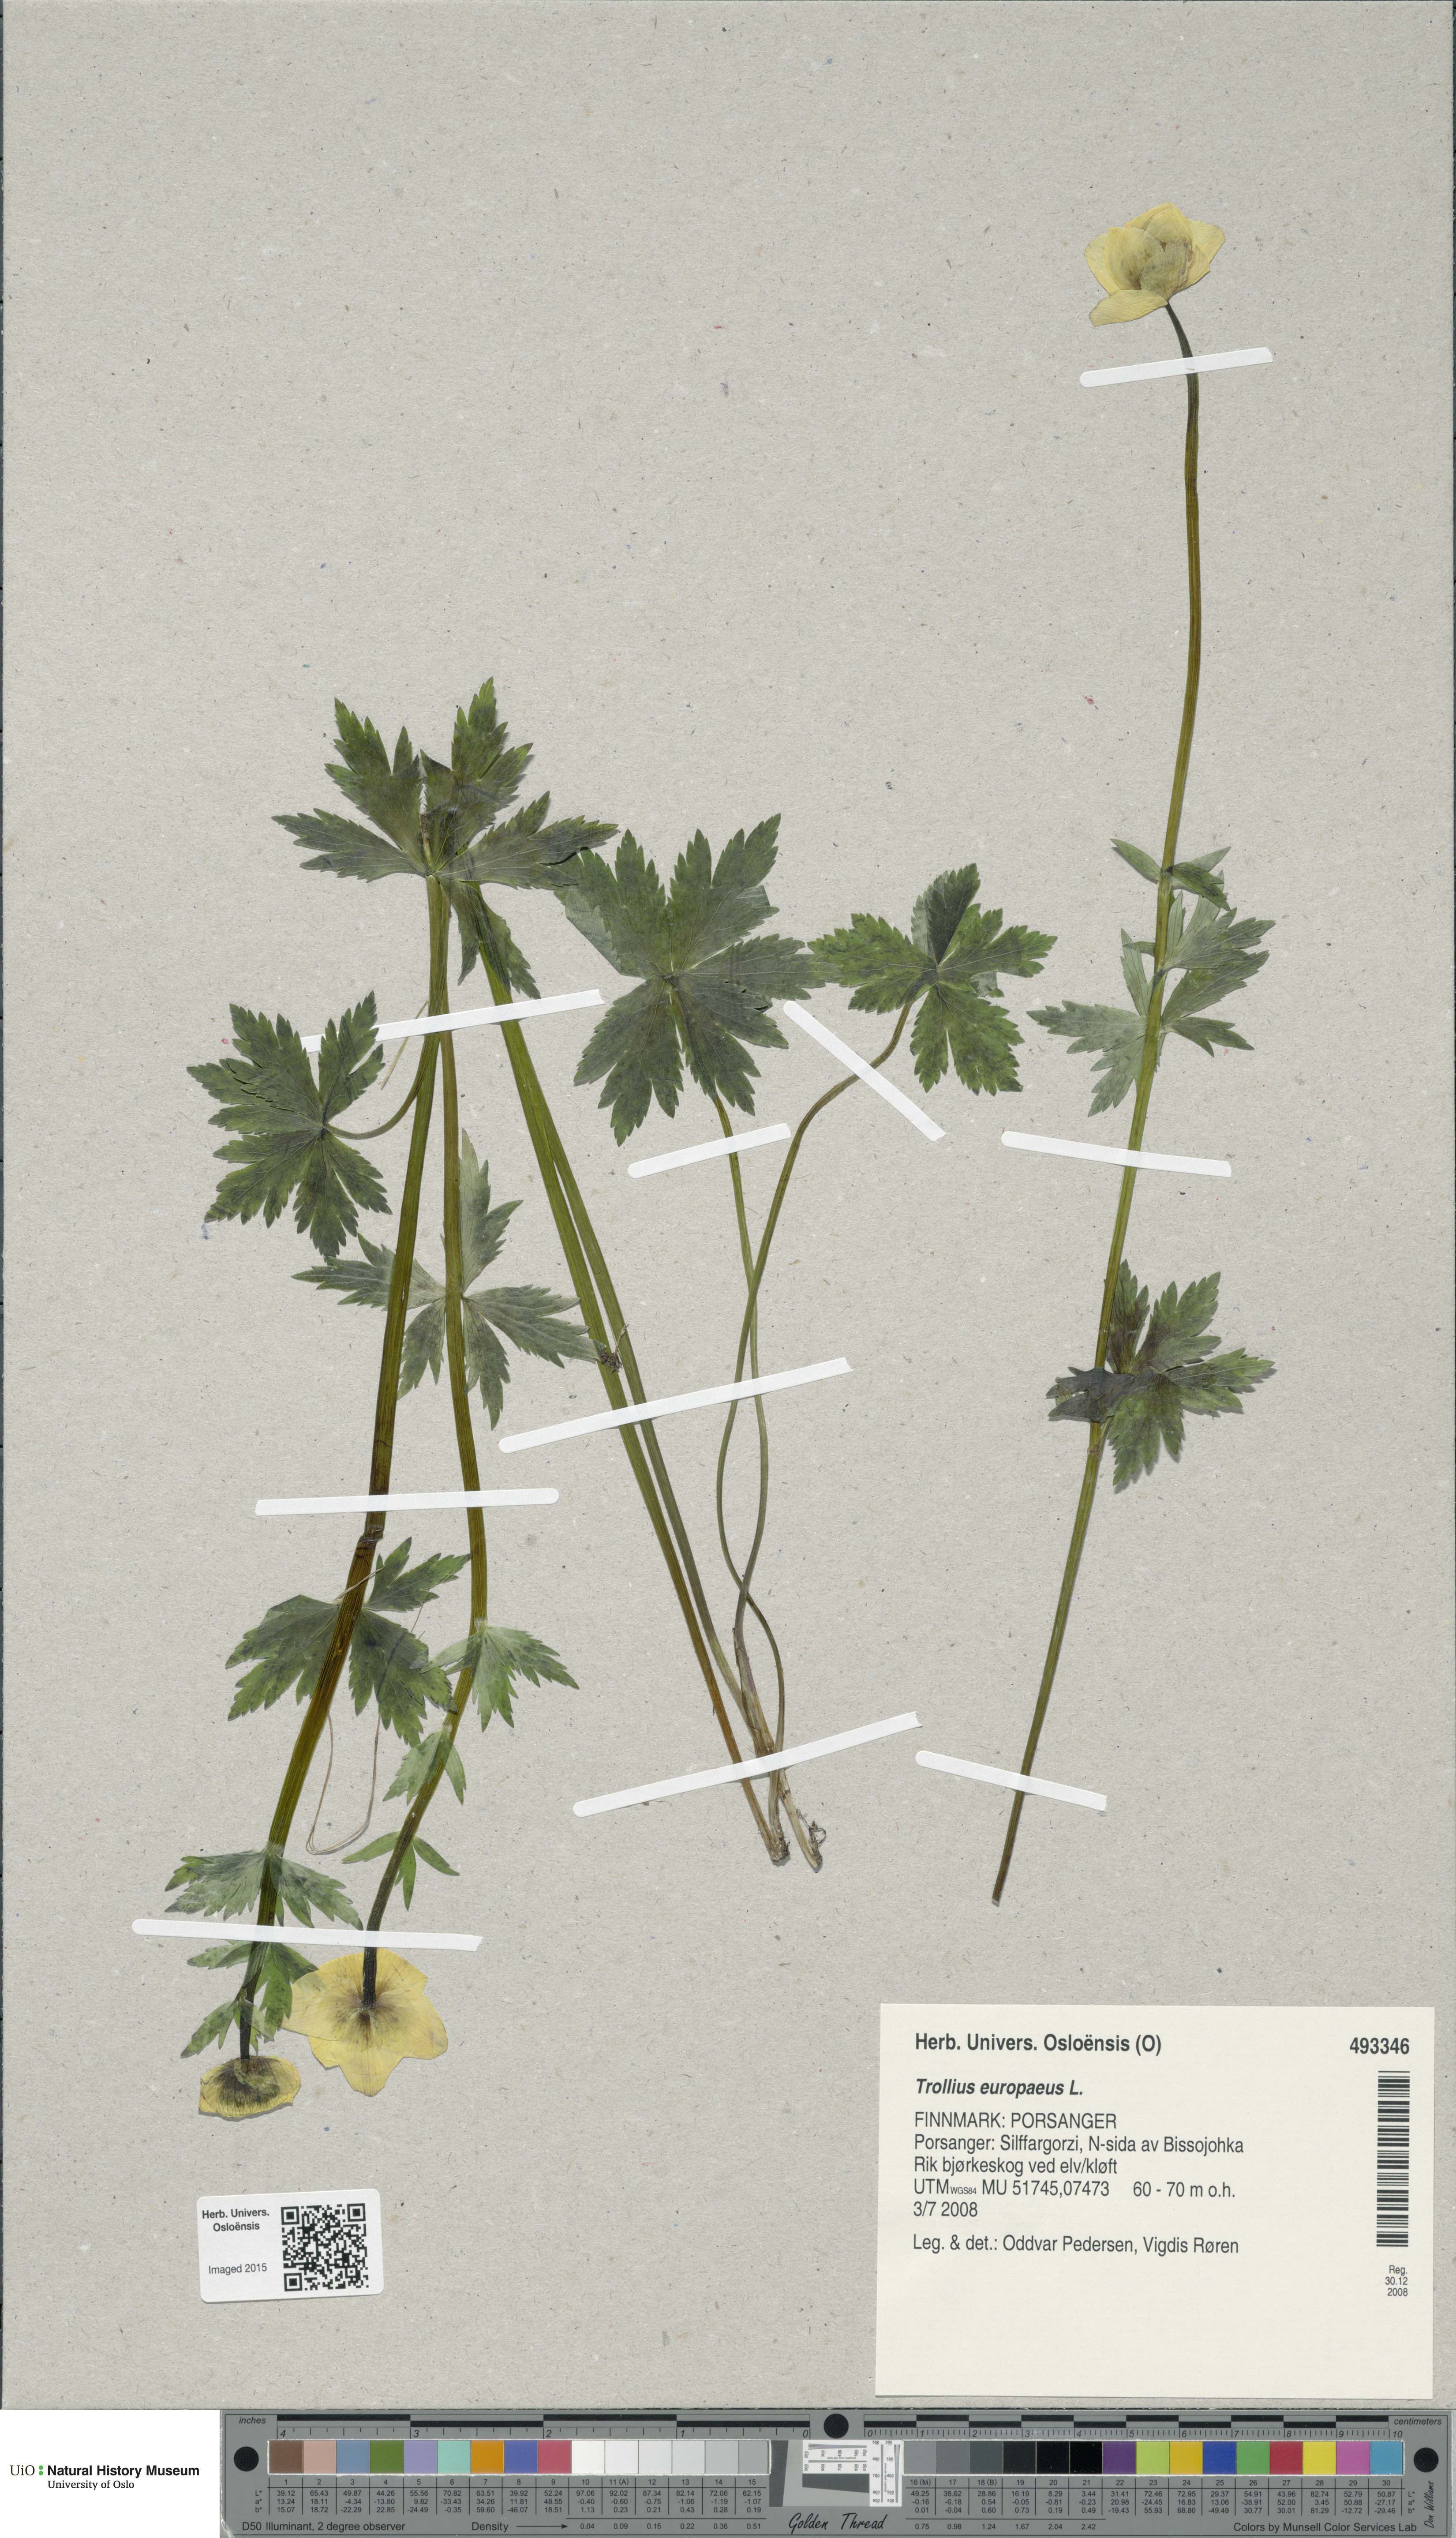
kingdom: Plantae
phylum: Tracheophyta
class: Magnoliopsida
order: Ranunculales
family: Ranunculaceae
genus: Trollius
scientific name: Trollius europaeus
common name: European globeflower
